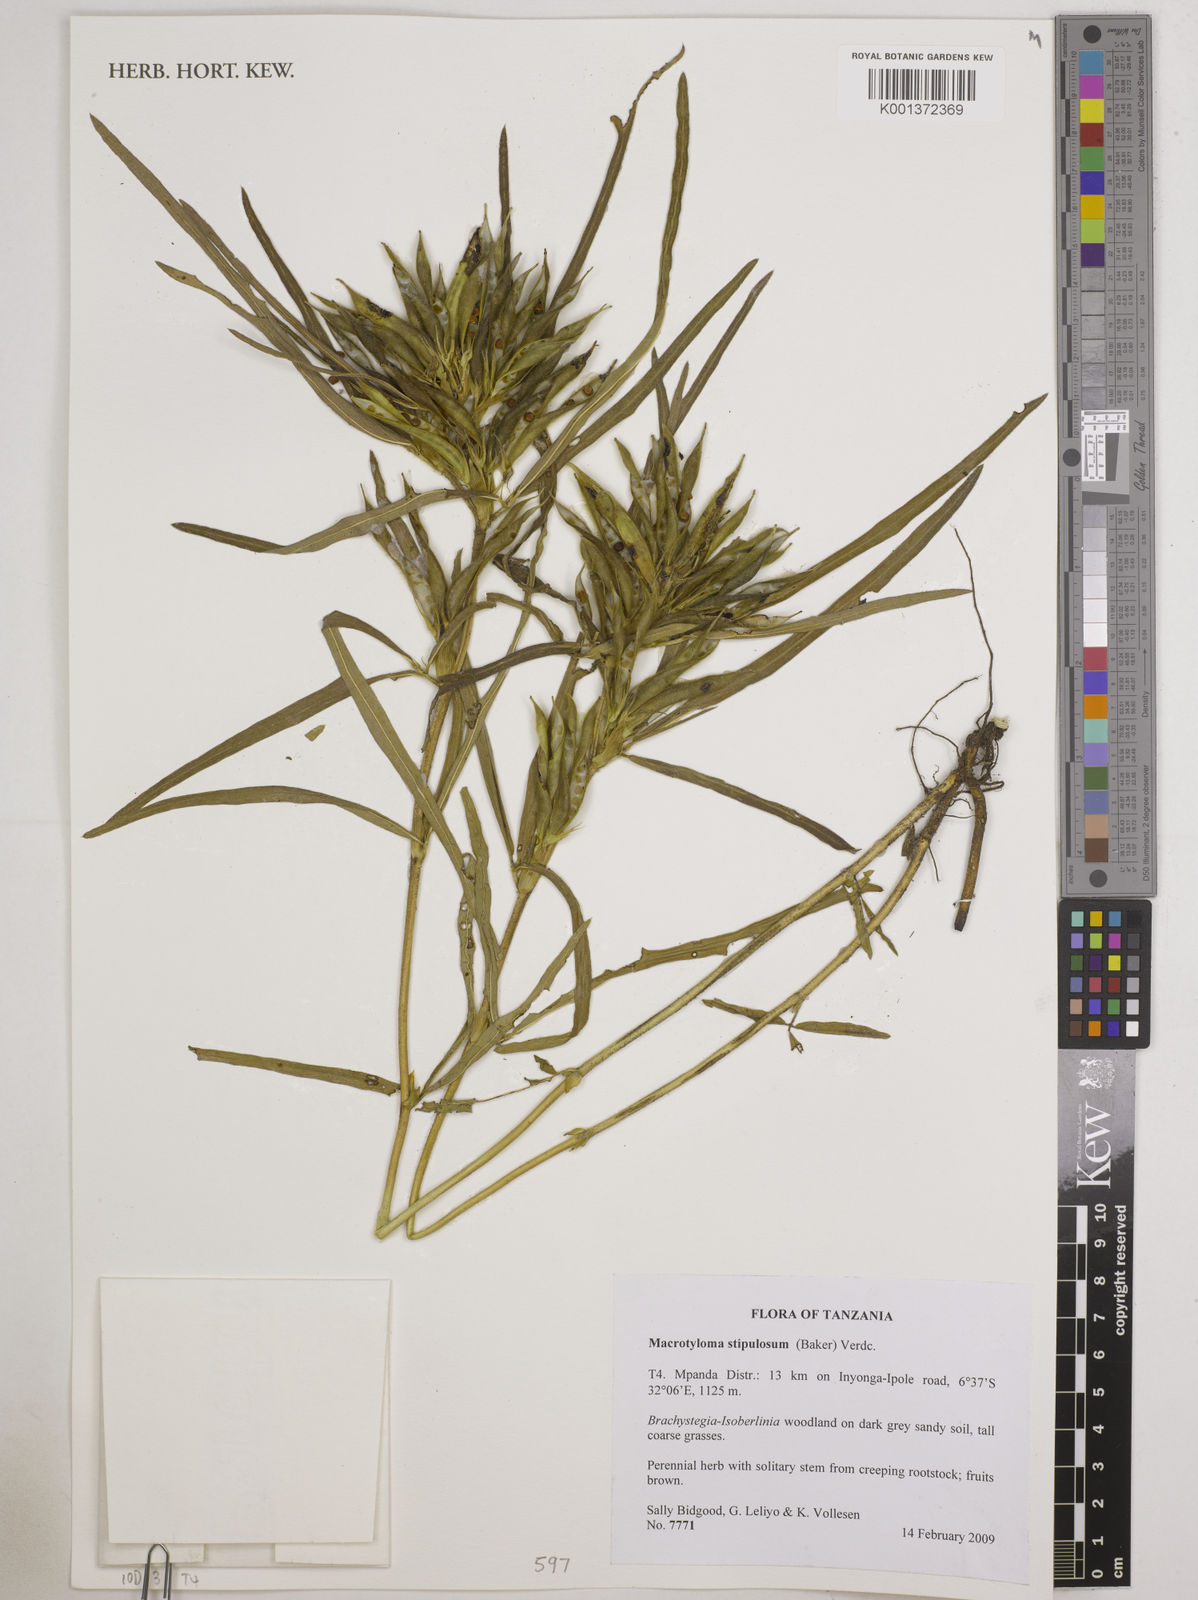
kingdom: Plantae
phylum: Tracheophyta
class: Magnoliopsida
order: Fabales
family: Fabaceae
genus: Macrotyloma
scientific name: Macrotyloma stipulosum
